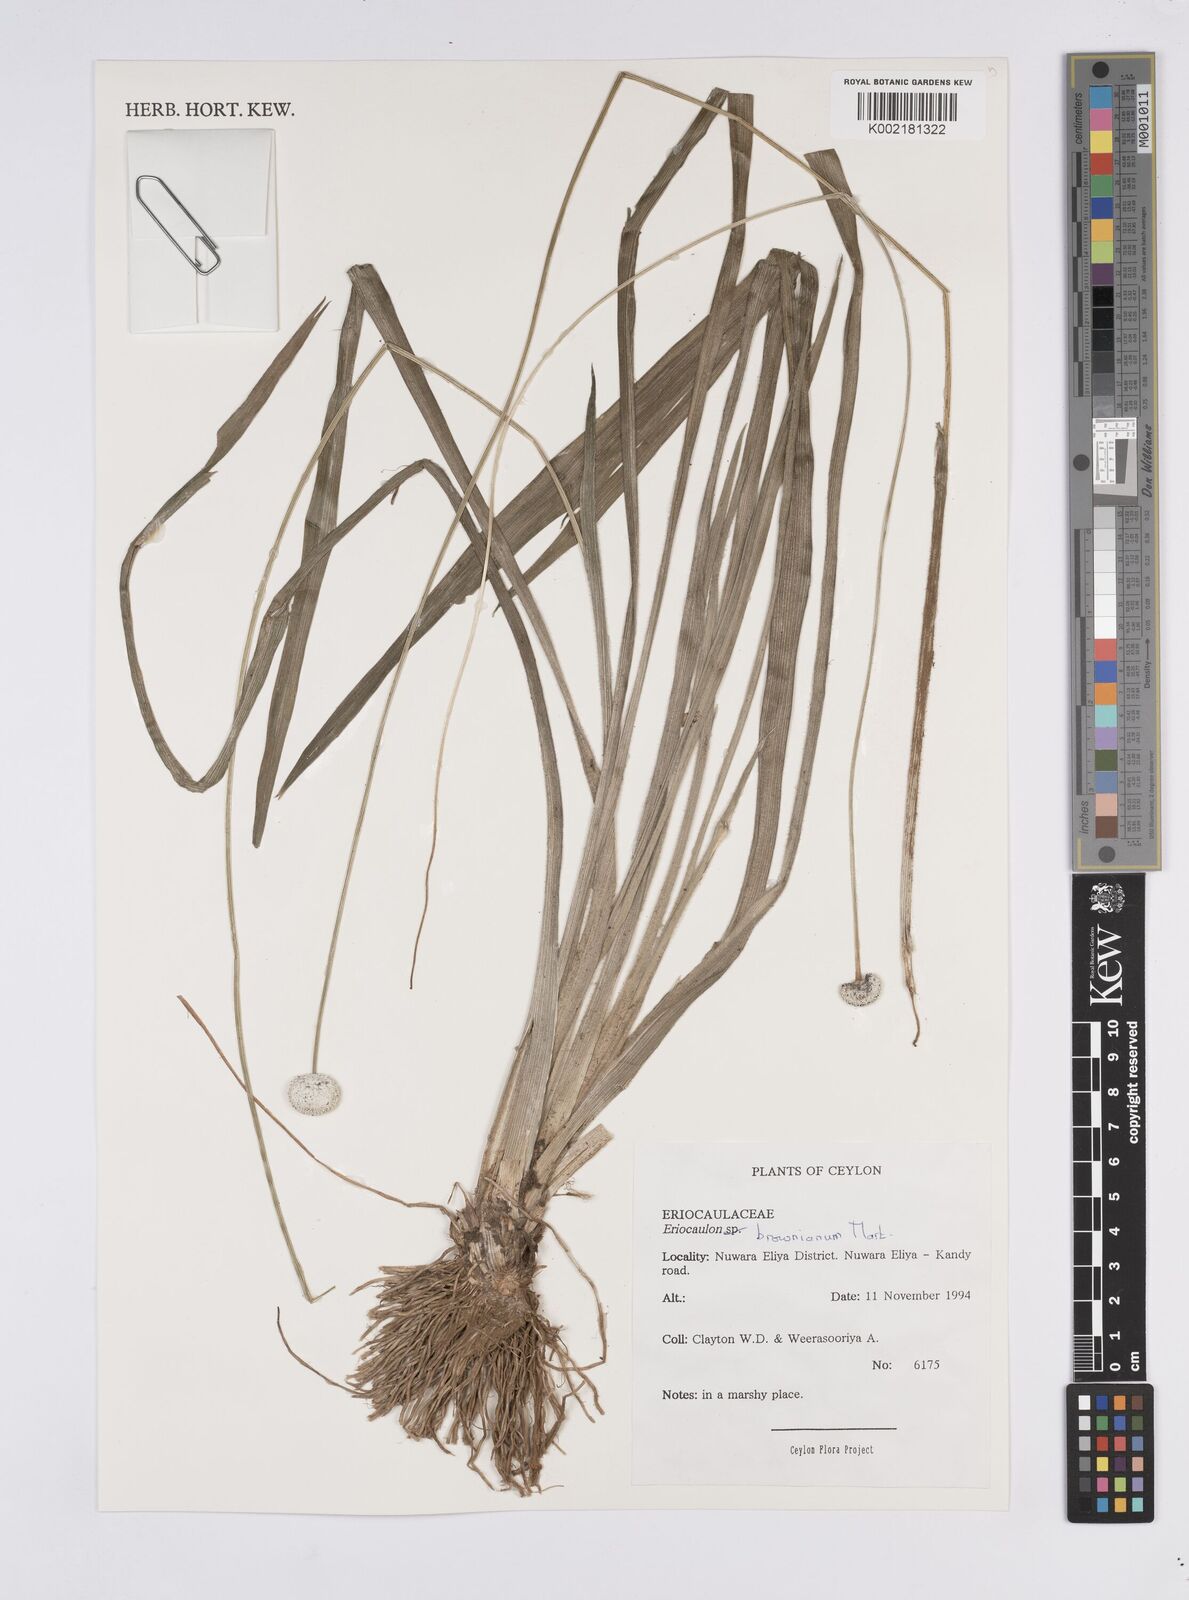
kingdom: Plantae
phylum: Tracheophyta
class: Liliopsida
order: Poales
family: Eriocaulaceae
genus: Eriocaulon
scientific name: Eriocaulon brownianum
